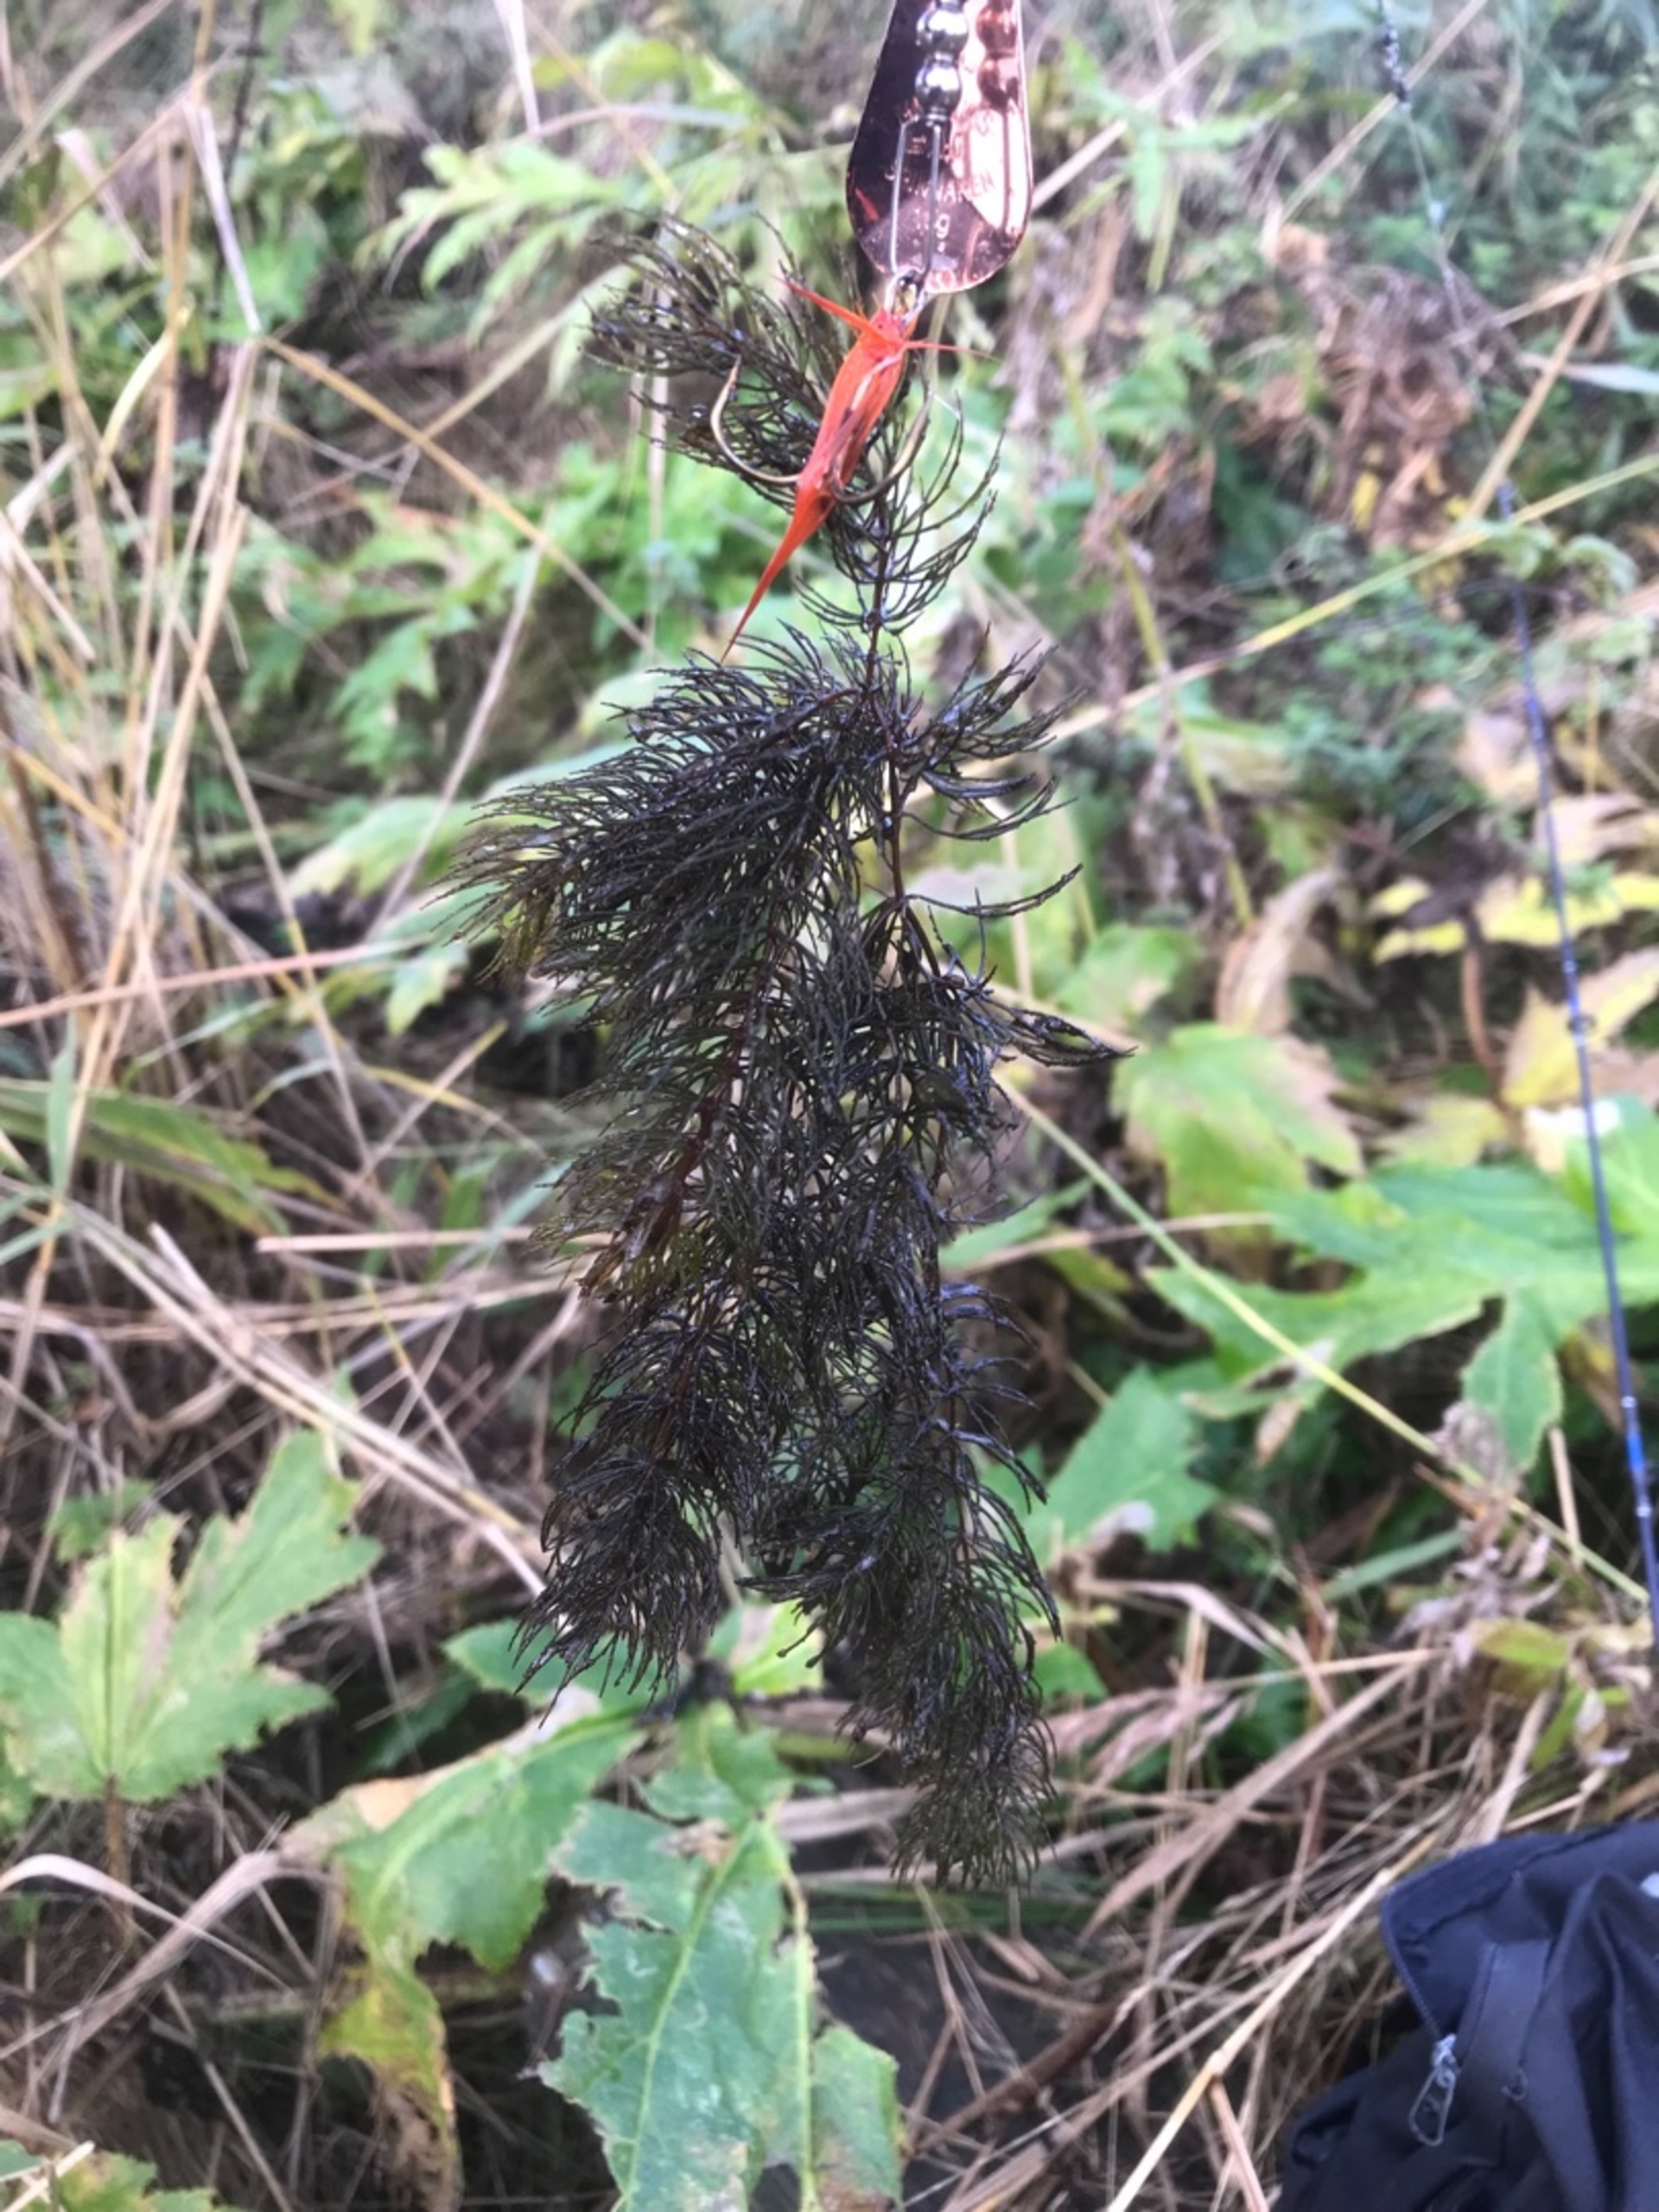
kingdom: Plantae
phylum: Tracheophyta
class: Magnoliopsida
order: Ceratophyllales
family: Ceratophyllaceae
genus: Ceratophyllum
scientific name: Ceratophyllum demersum
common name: Tornfrøet hornblad
